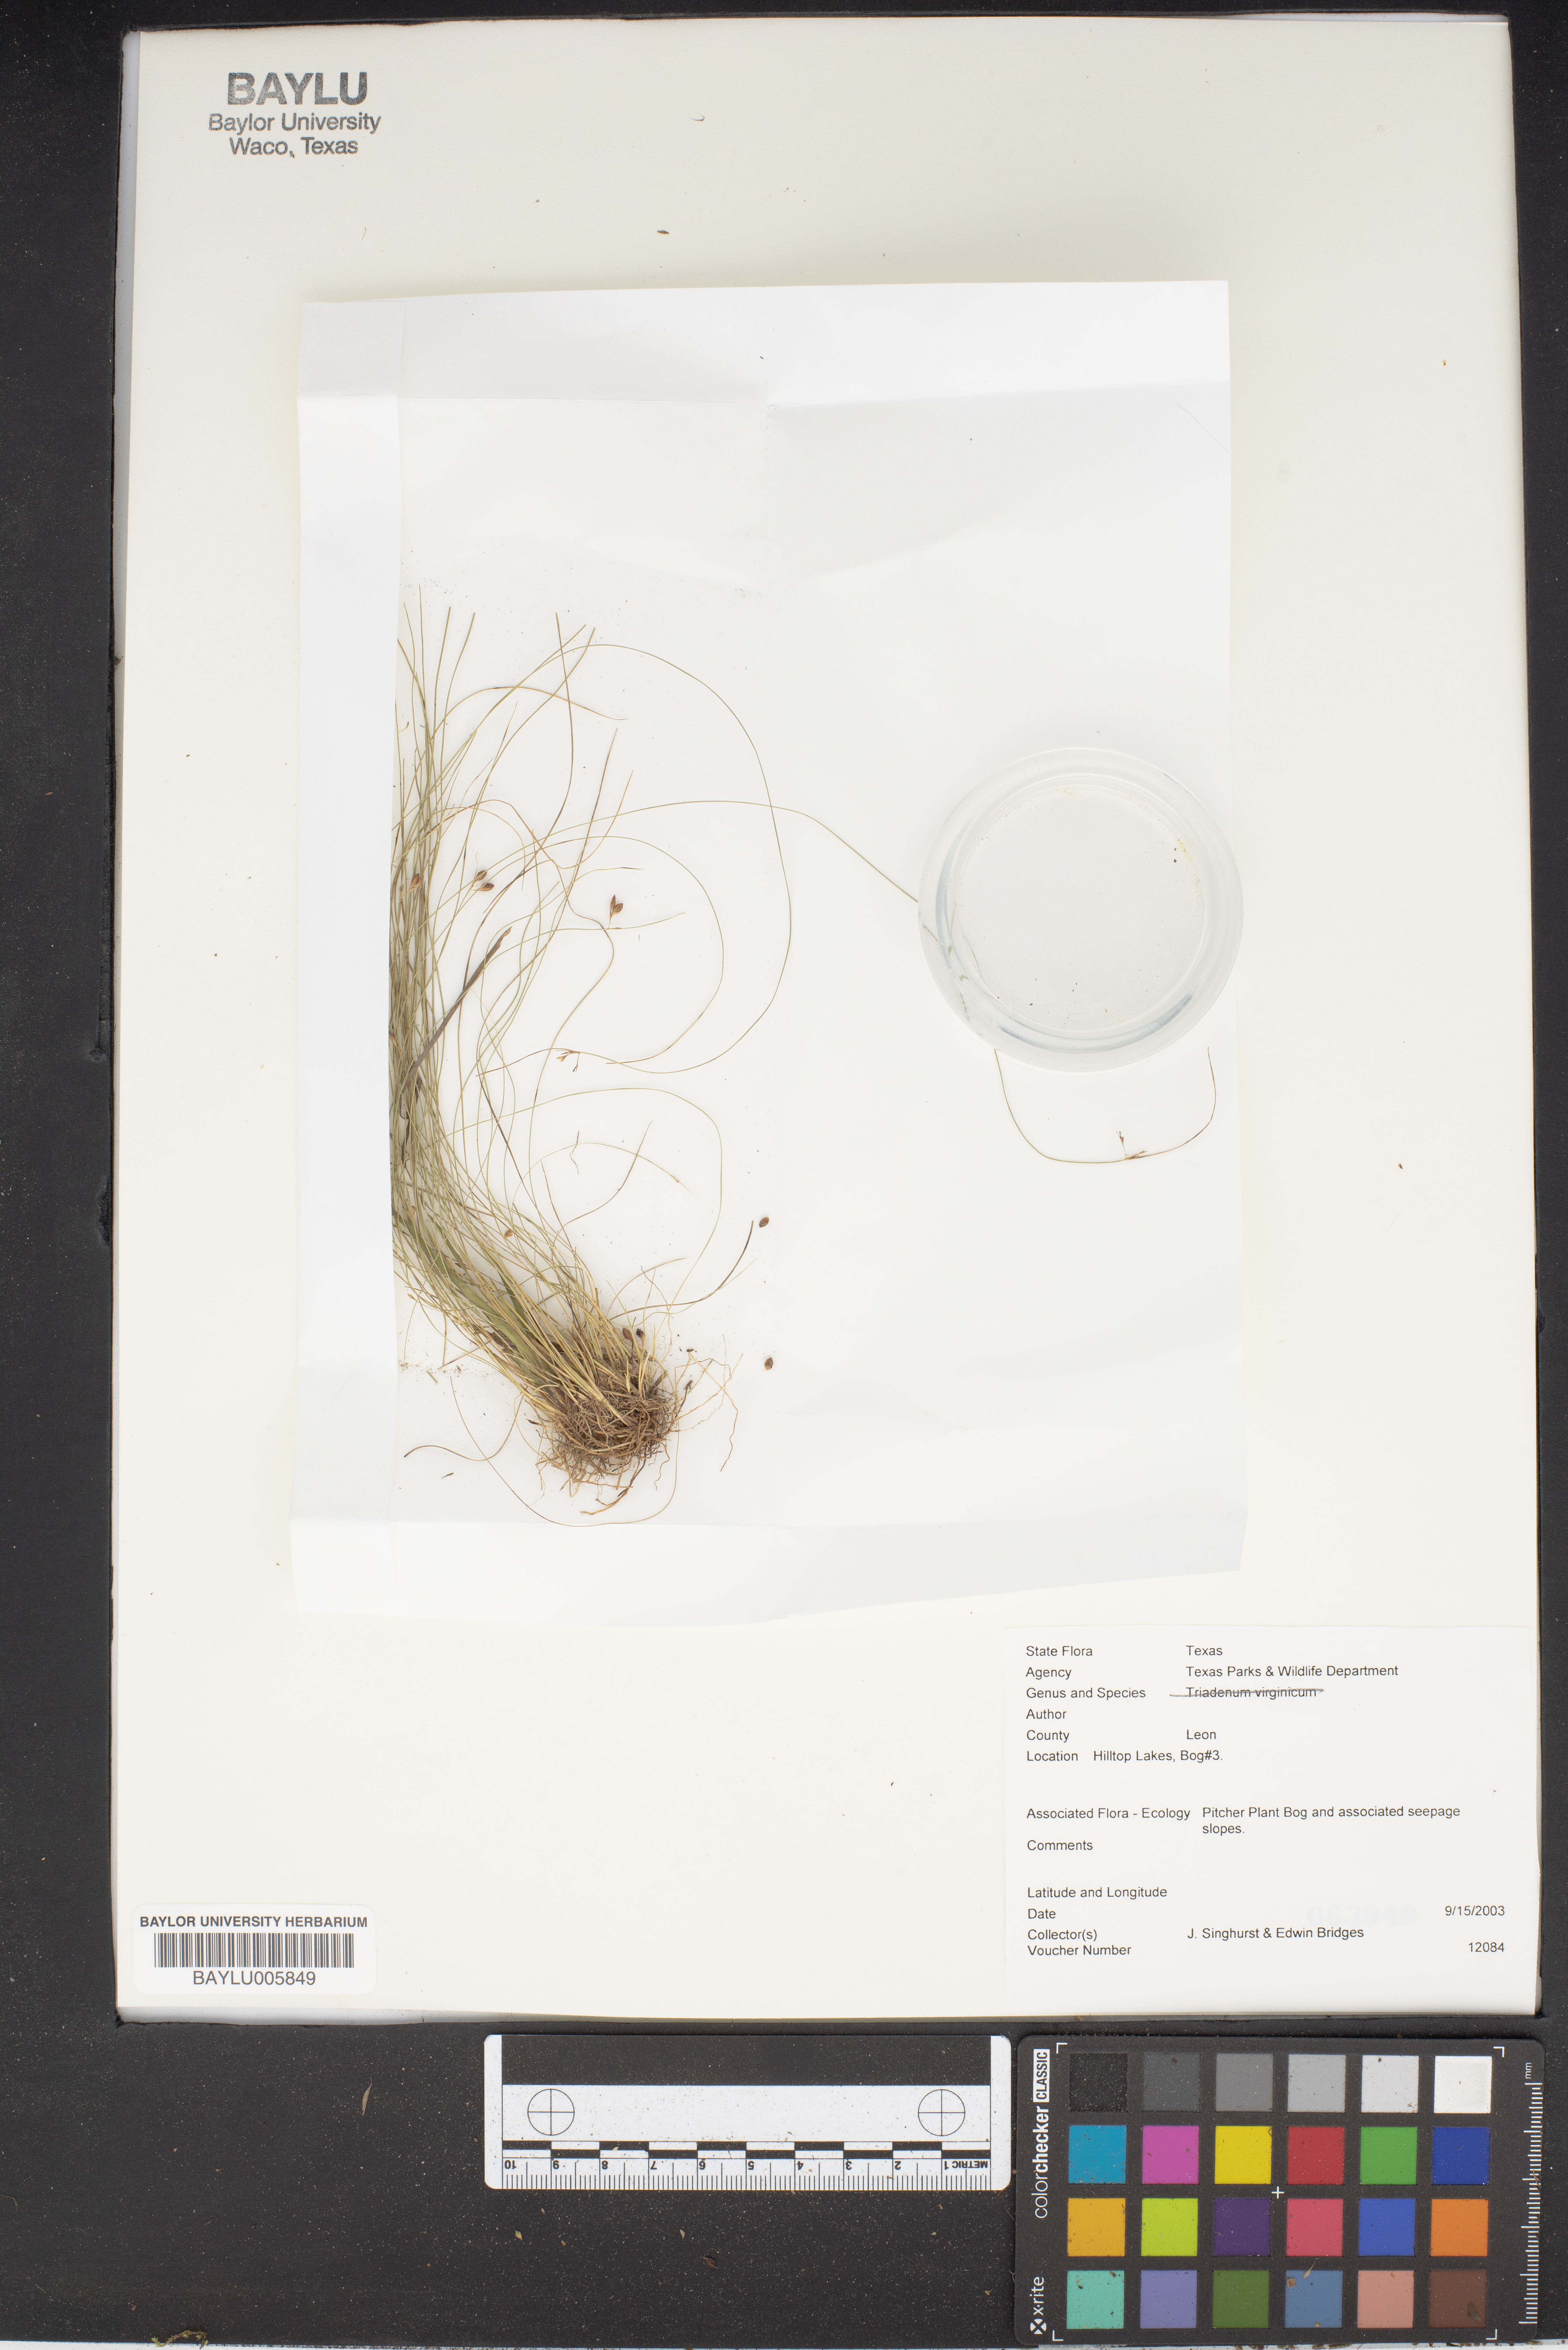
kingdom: Plantae
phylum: Tracheophyta
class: Magnoliopsida
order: Malpighiales
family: Hypericaceae
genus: Triadenum
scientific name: Triadenum virginicum
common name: Marsh st. john's-wort
